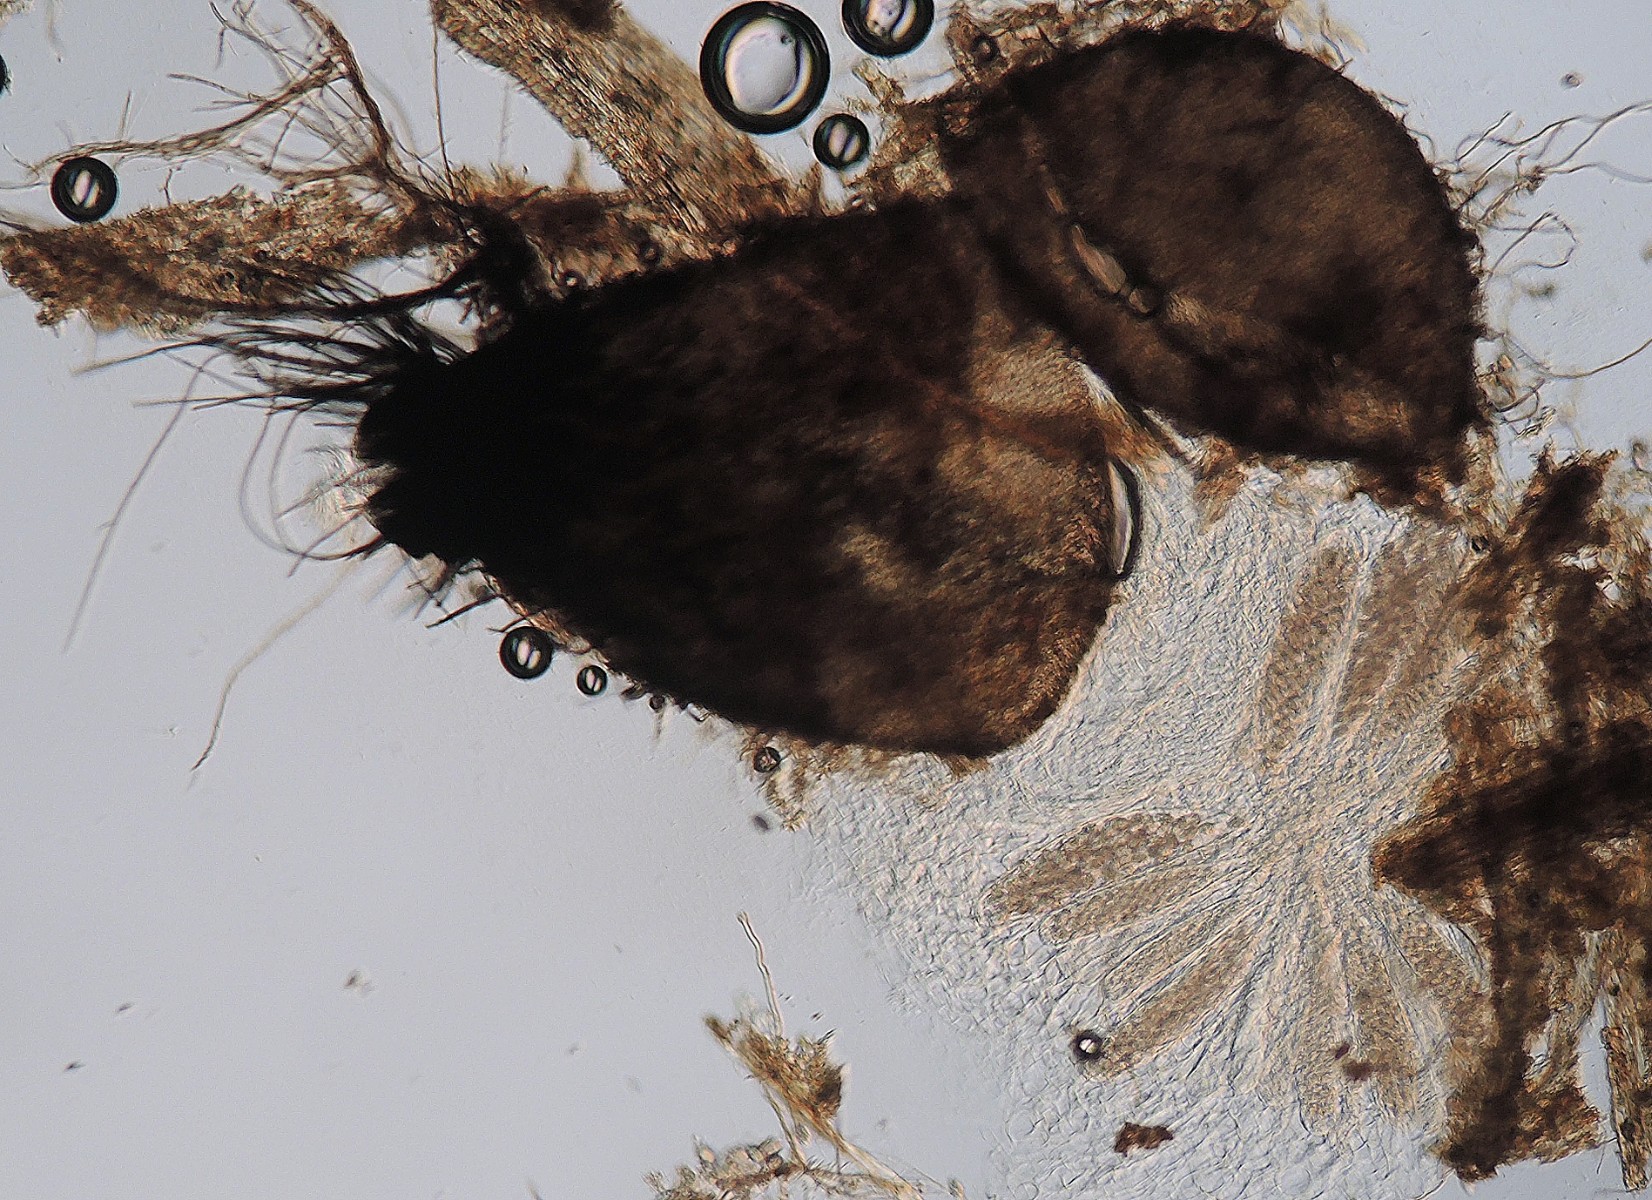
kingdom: Fungi
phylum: Ascomycota
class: Sordariomycetes
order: Sordariales
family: Podosporaceae
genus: Triangularia
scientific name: Triangularia setosa
